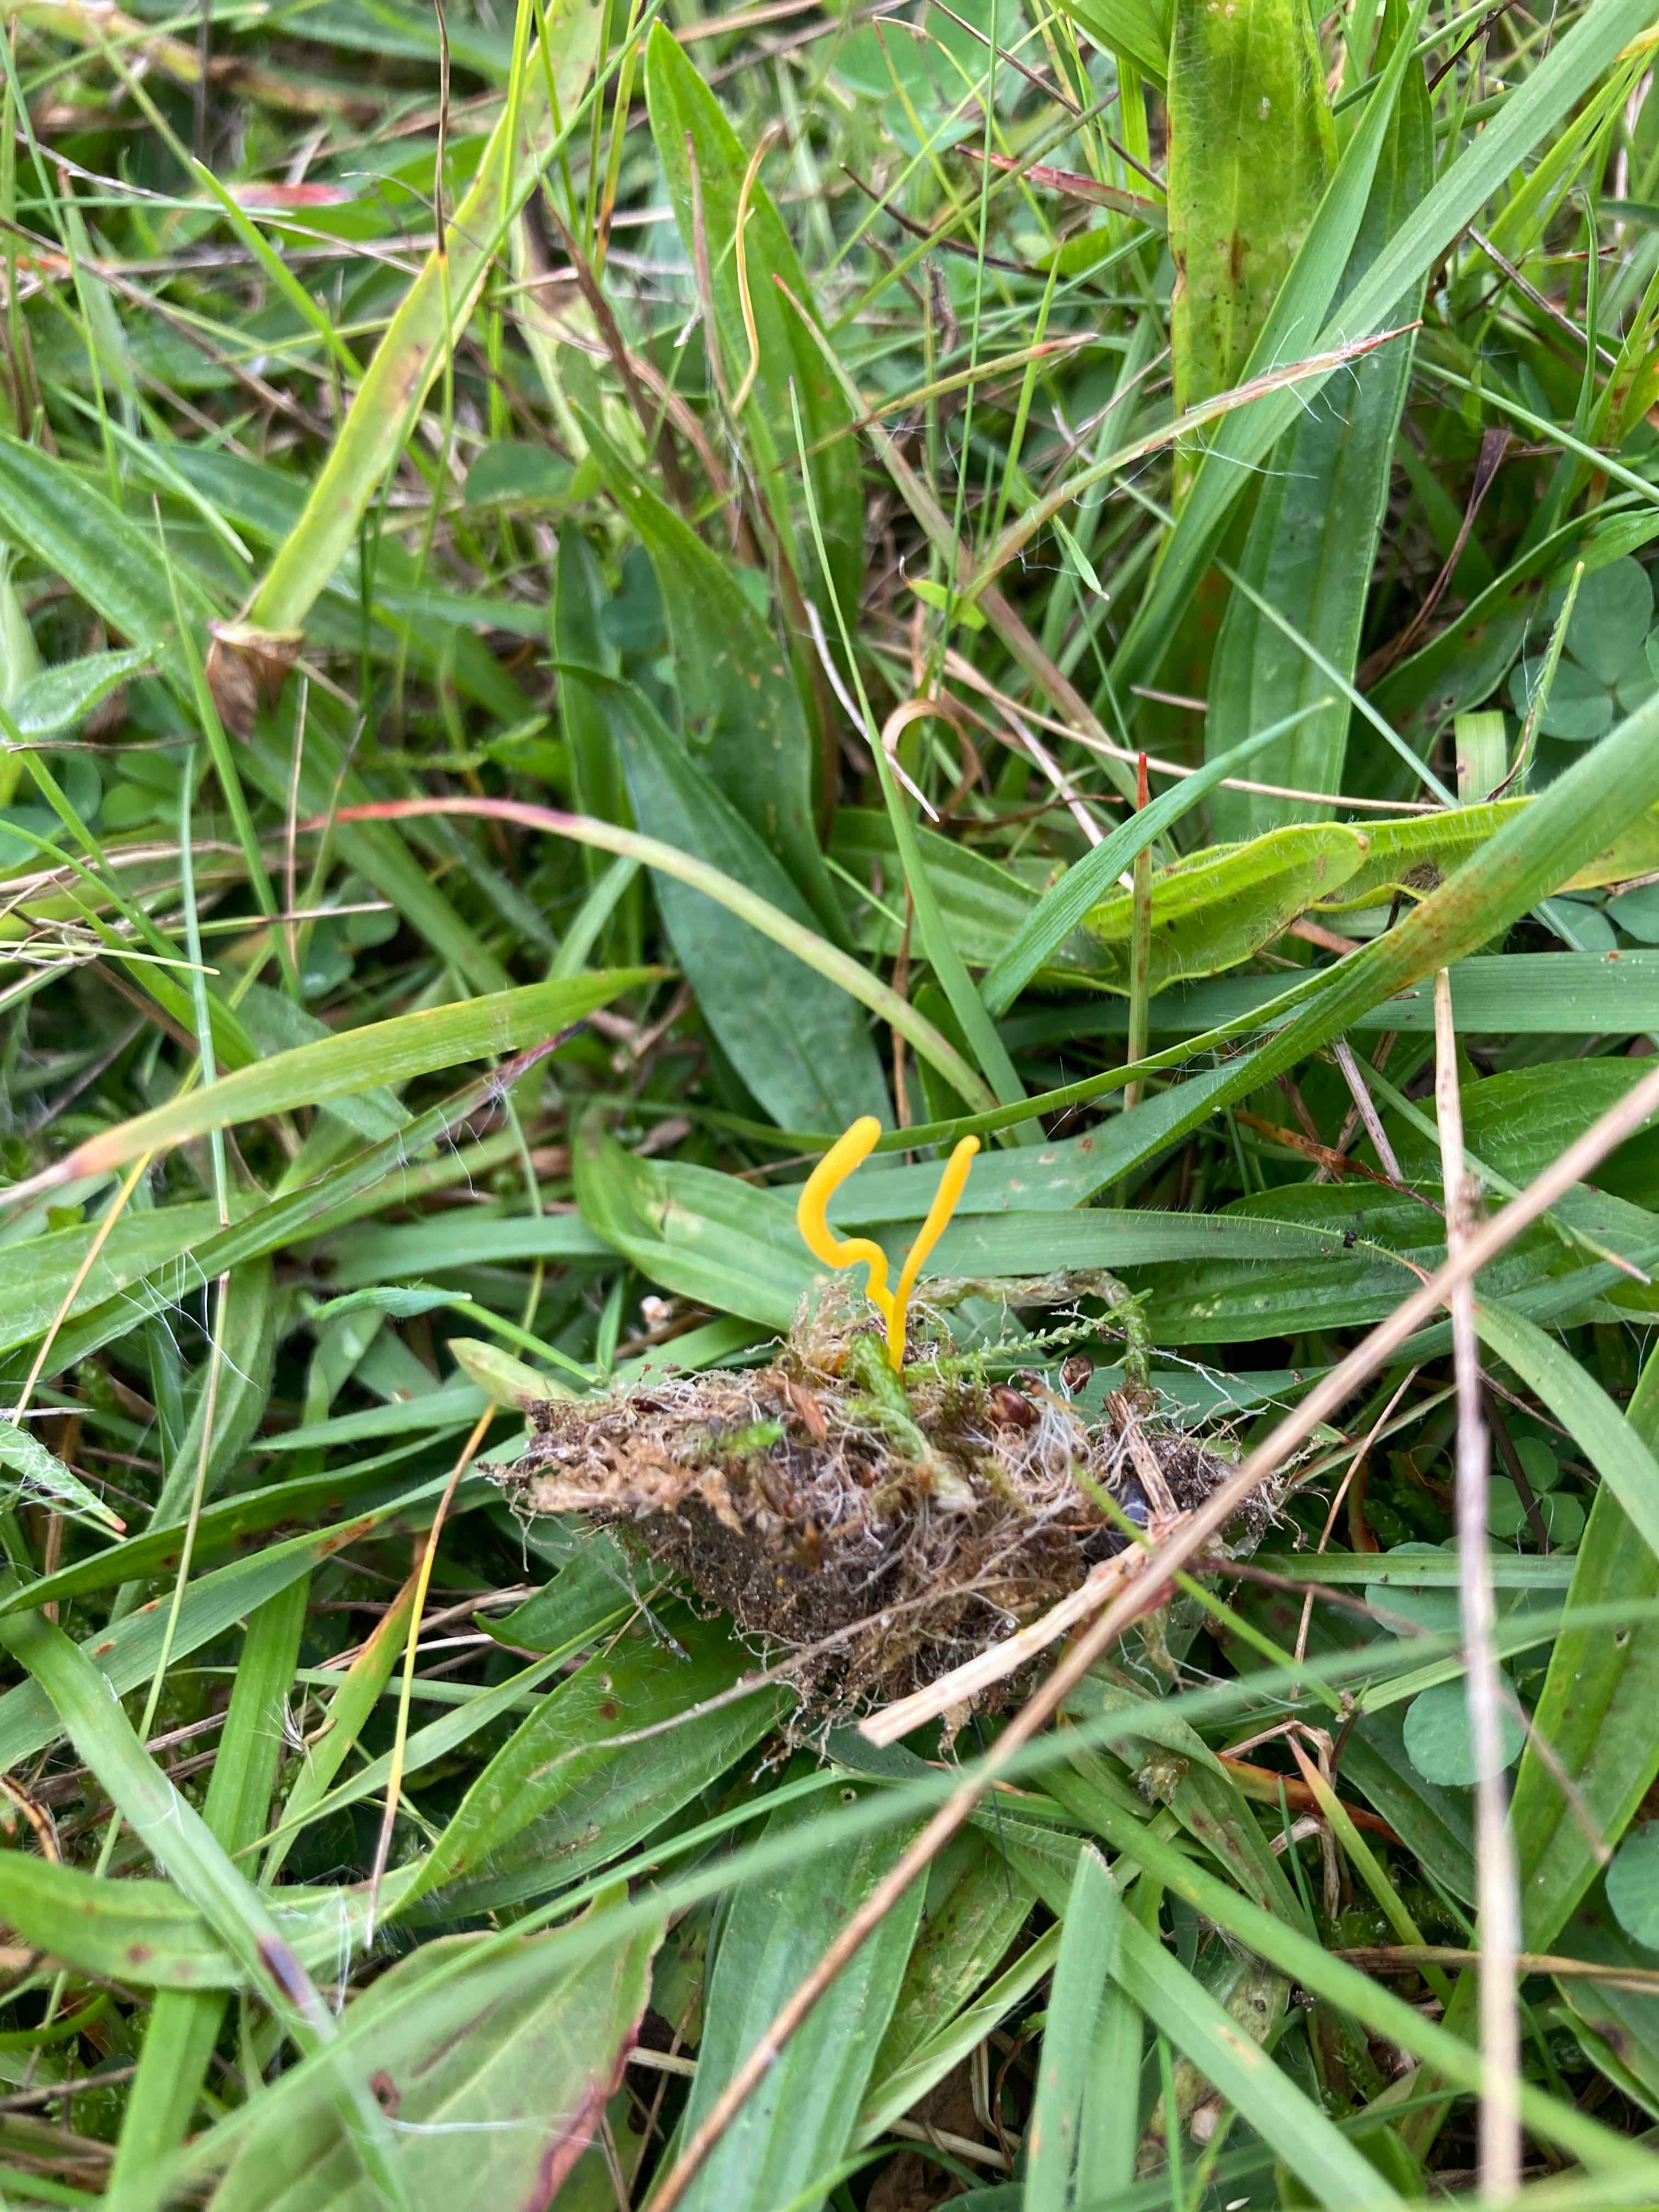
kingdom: Fungi
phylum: Basidiomycota
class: Agaricomycetes
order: Agaricales
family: Clavariaceae
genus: Clavulinopsis
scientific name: Clavulinopsis laeticolor
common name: flamme-køllesvamp
